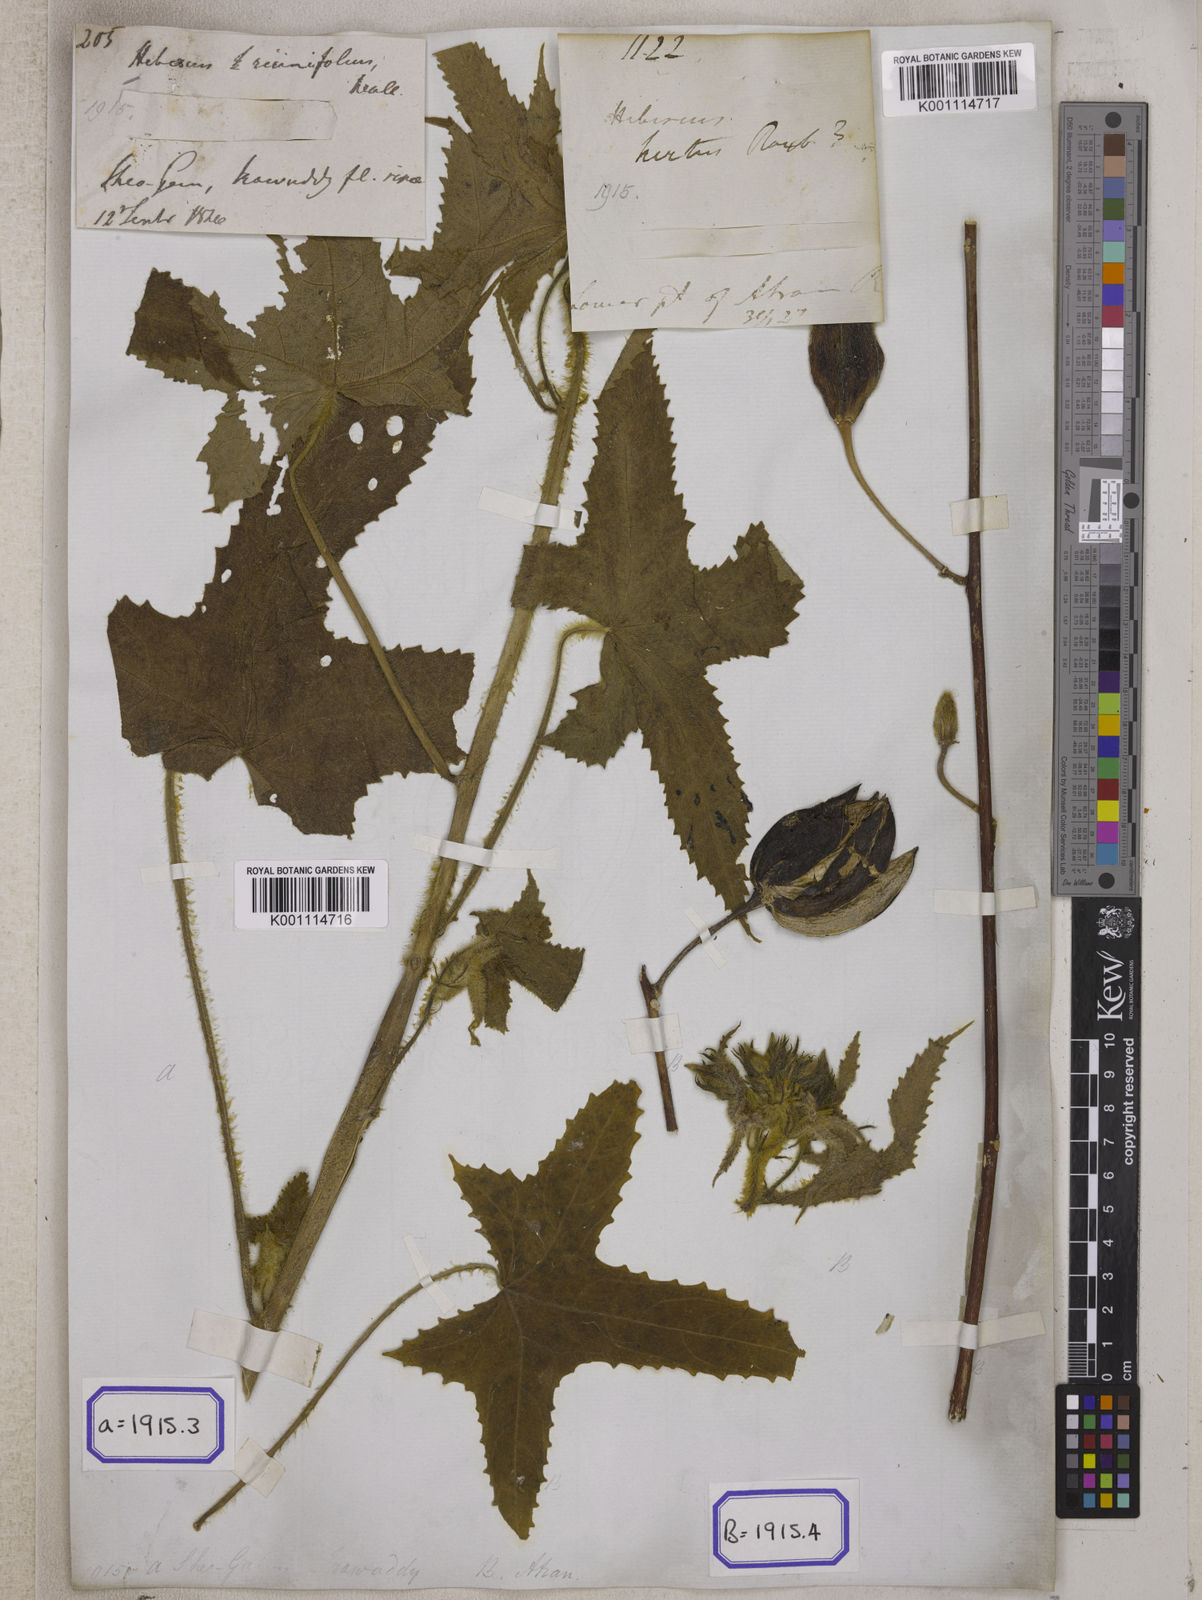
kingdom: Plantae
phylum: Tracheophyta
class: Magnoliopsida
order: Malvales
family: Malvaceae
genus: Bamia
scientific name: Bamia
